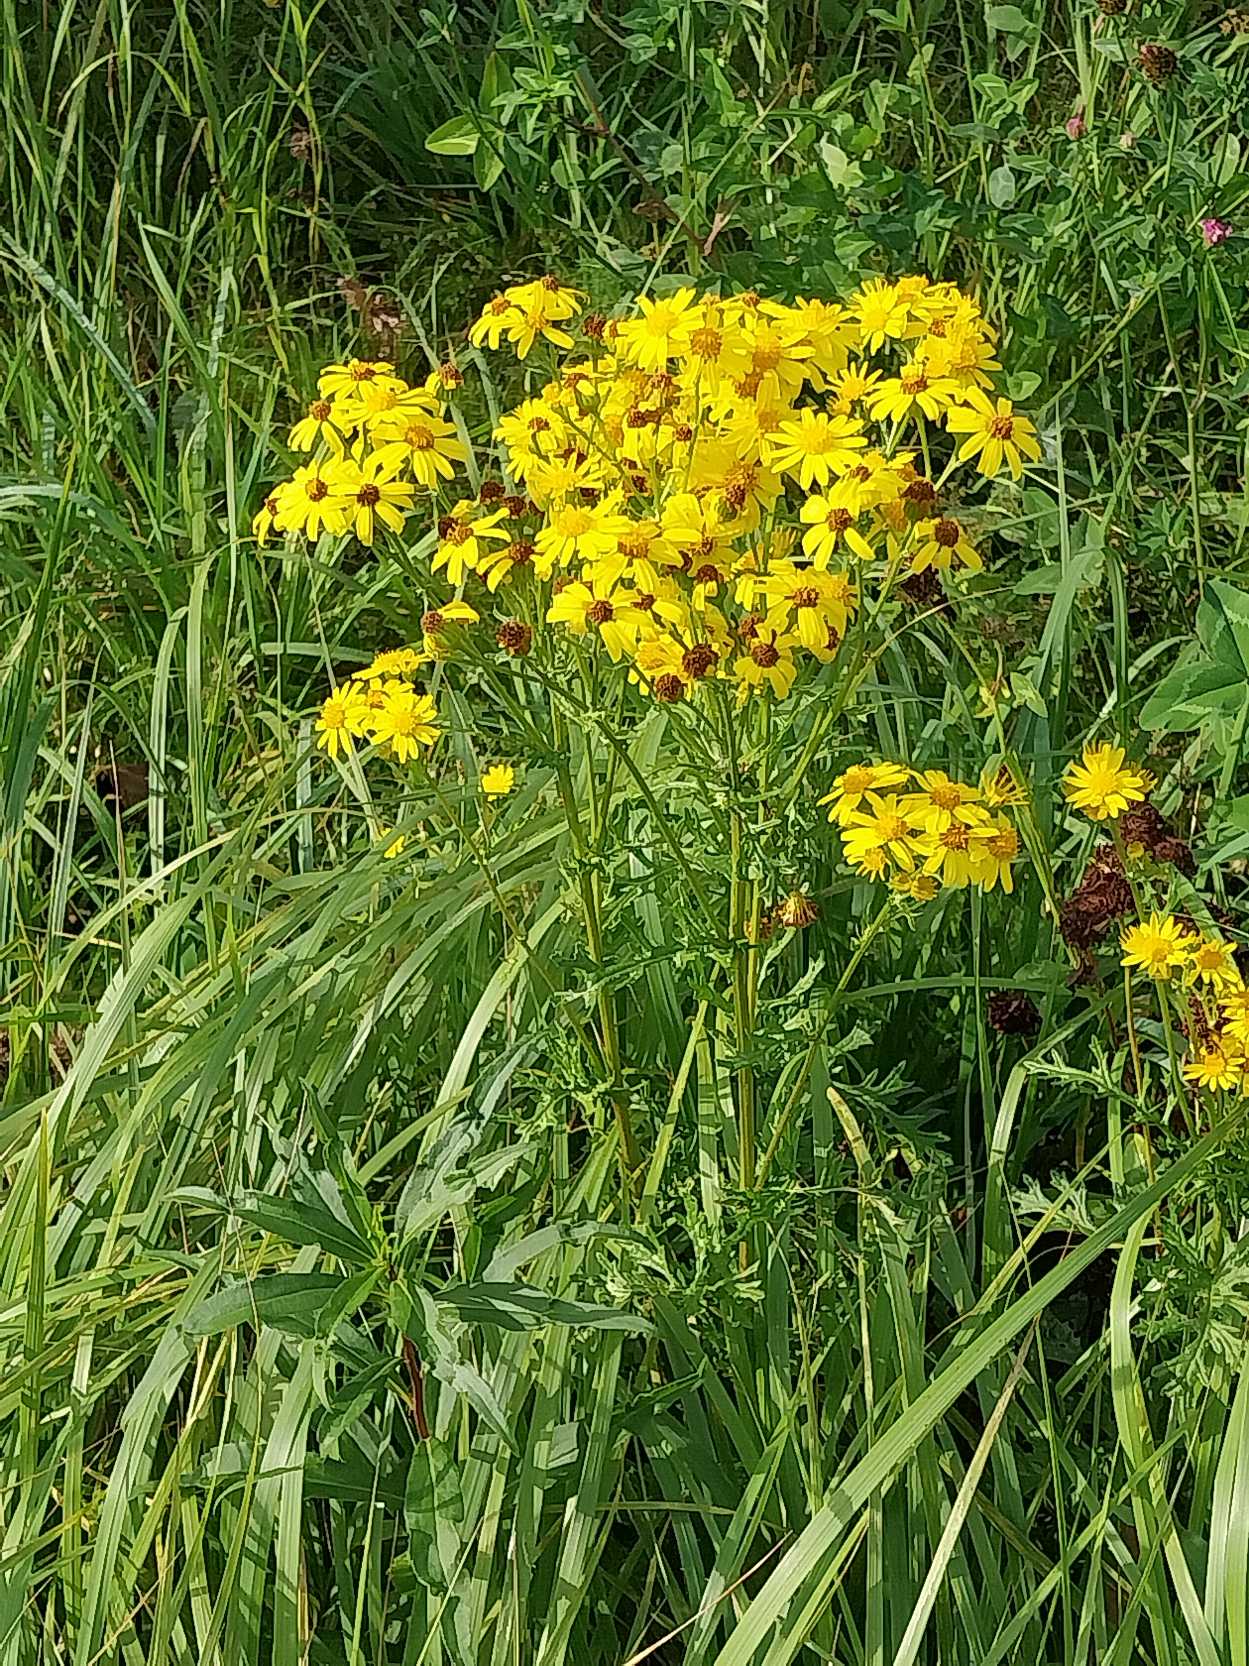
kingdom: Plantae
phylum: Tracheophyta
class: Magnoliopsida
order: Asterales
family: Asteraceae
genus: Jacobaea
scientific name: Jacobaea vulgaris
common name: Eng-brandbæger
